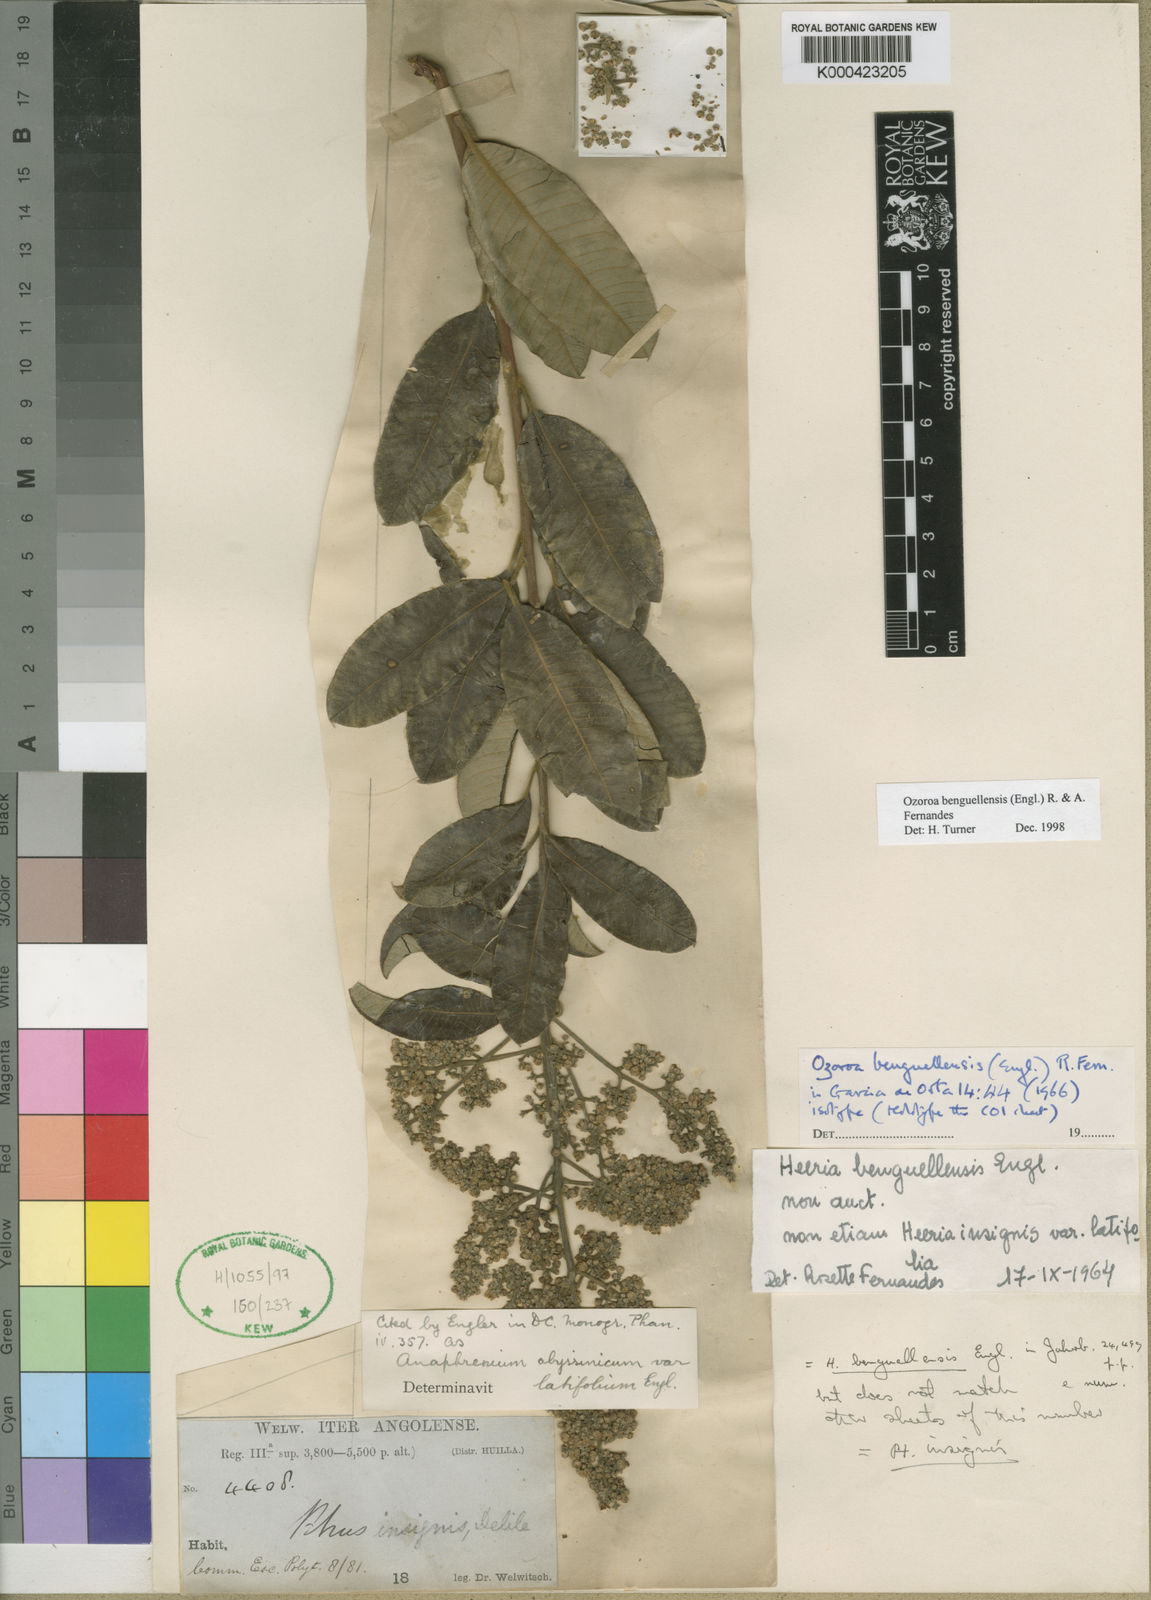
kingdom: Plantae
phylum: Tracheophyta
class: Magnoliopsida
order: Sapindales
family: Anacardiaceae
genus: Ozoroa
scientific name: Ozoroa benguellensis
